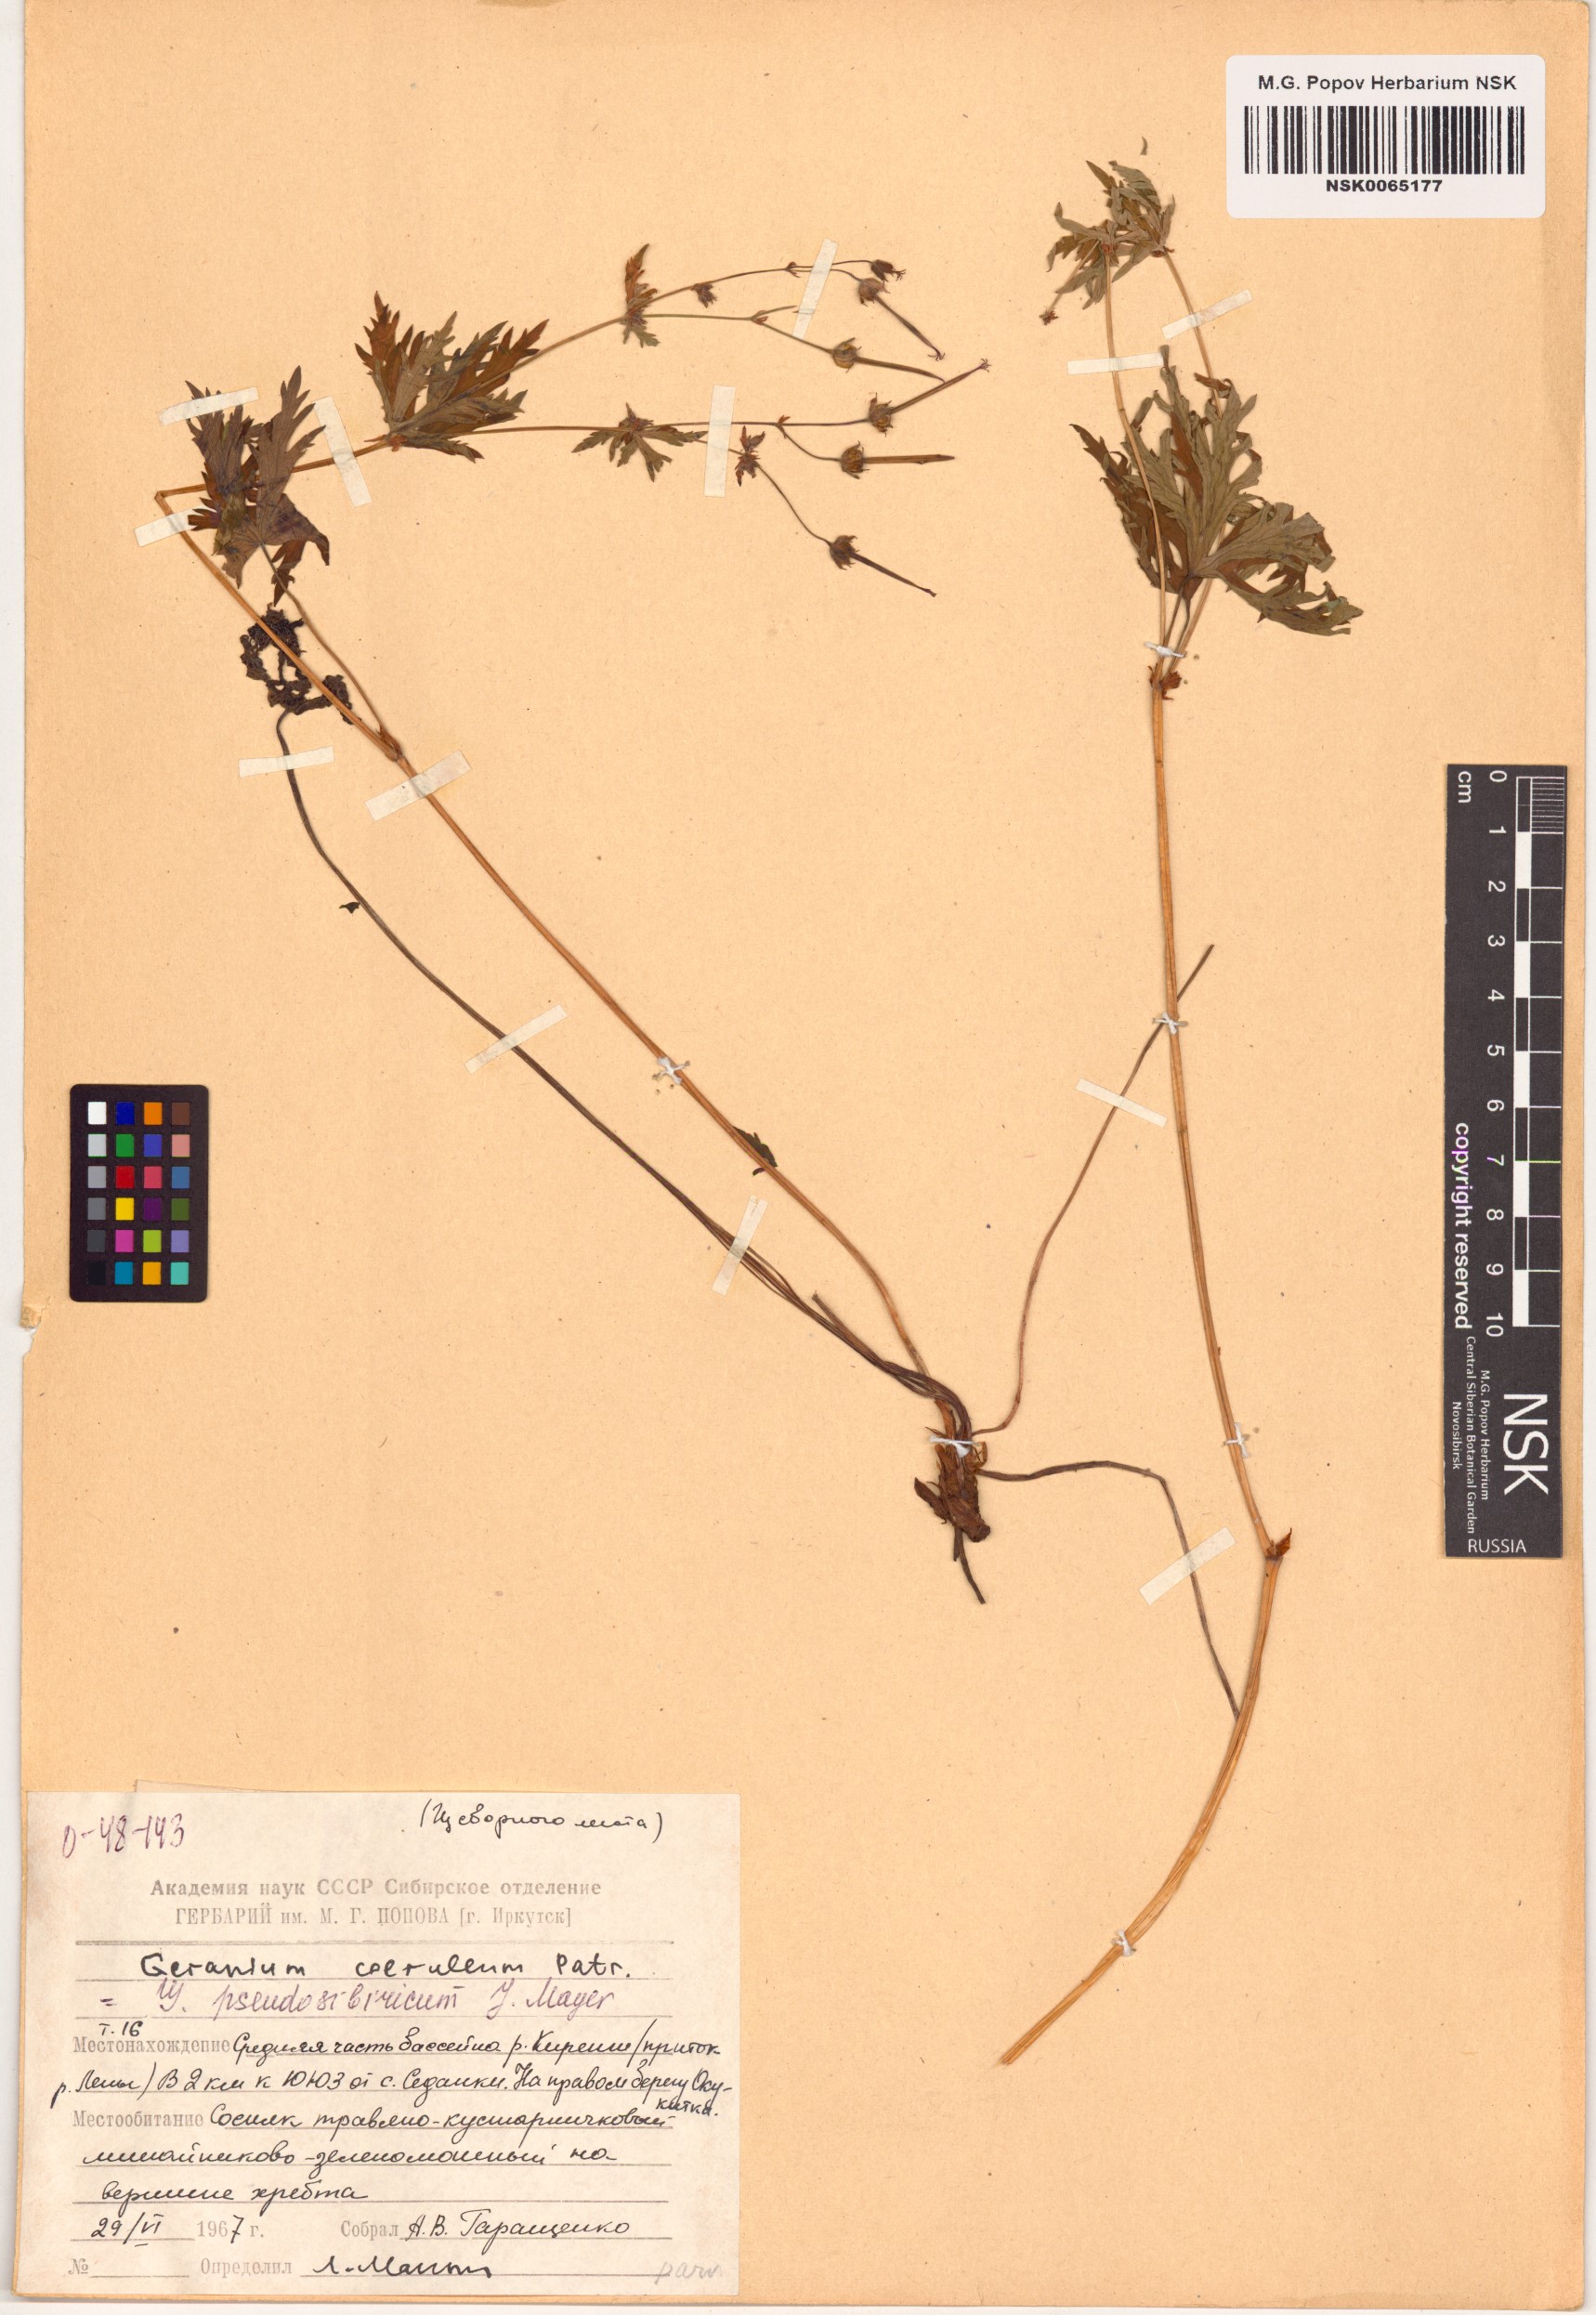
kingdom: Plantae
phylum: Tracheophyta
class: Magnoliopsida
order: Geraniales
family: Geraniaceae
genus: Geranium
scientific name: Geranium pseudosibiricum
